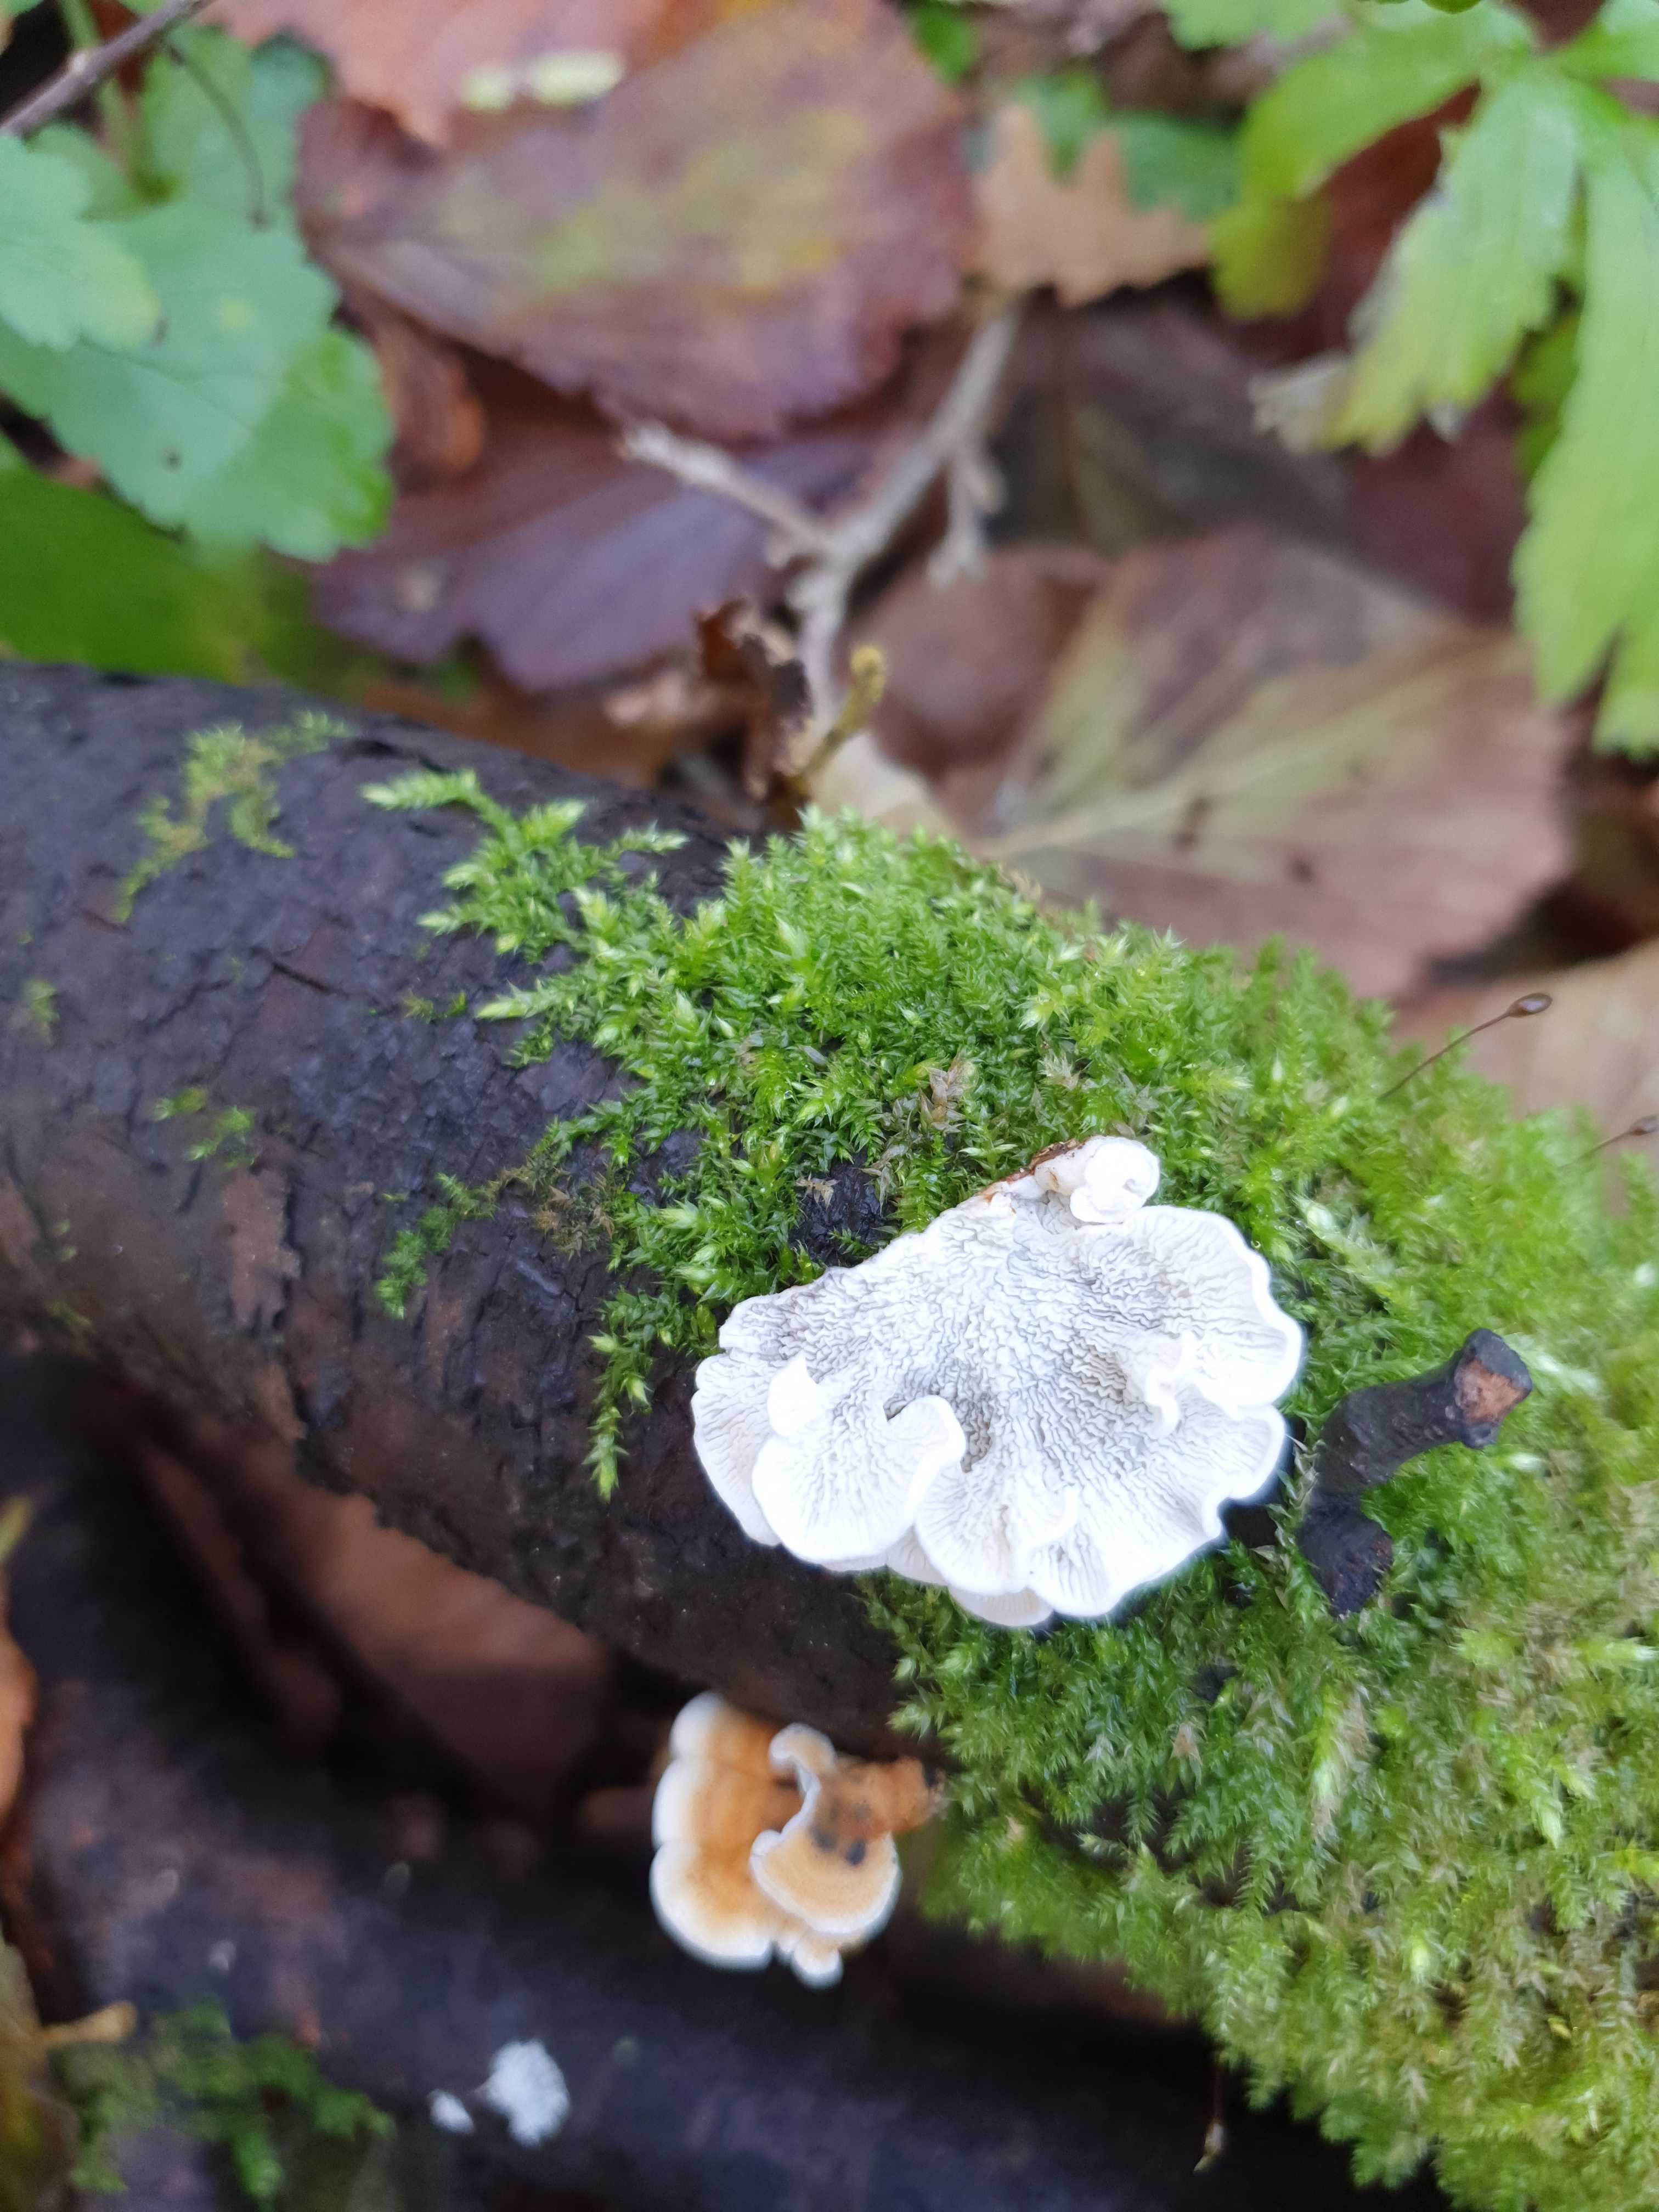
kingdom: Fungi
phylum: Basidiomycota
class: Agaricomycetes
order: Amylocorticiales
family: Amylocorticiaceae
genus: Plicaturopsis
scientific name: Plicaturopsis crispa
